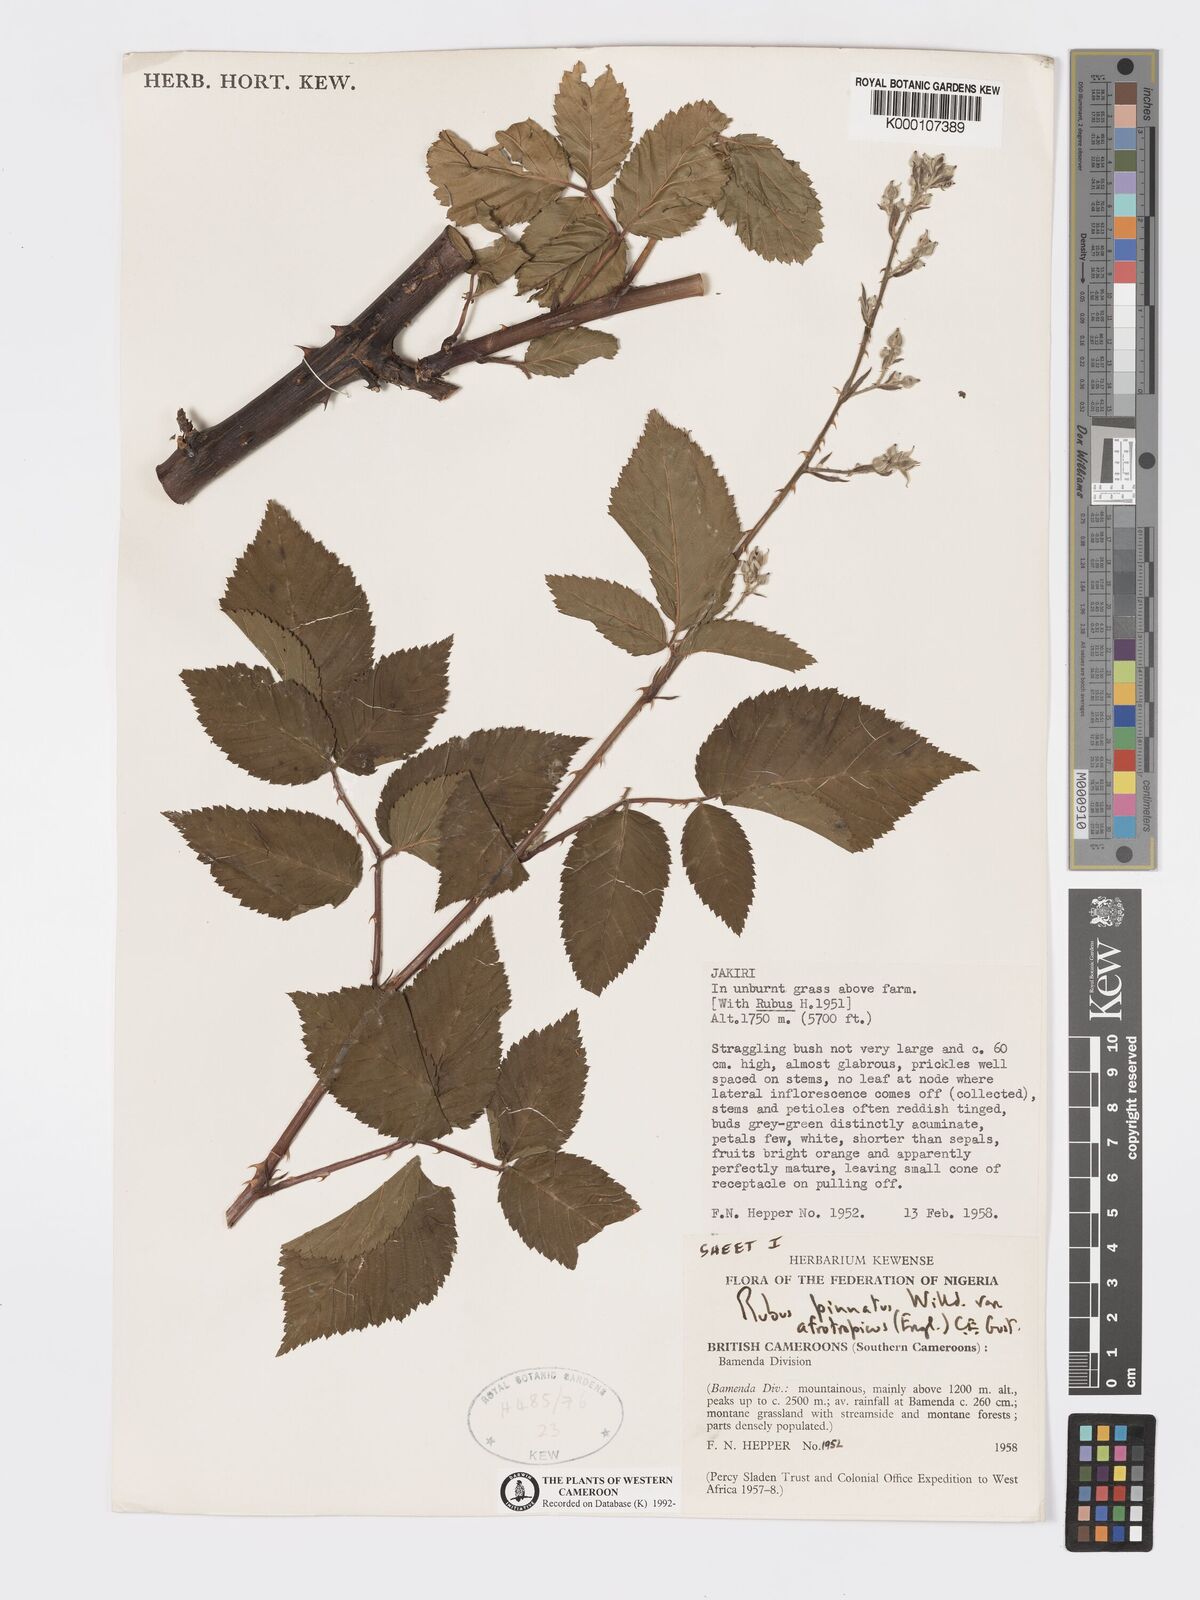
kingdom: Plantae
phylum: Tracheophyta
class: Magnoliopsida
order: Rosales
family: Rosaceae
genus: Rubus
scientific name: Rubus pinnatus
